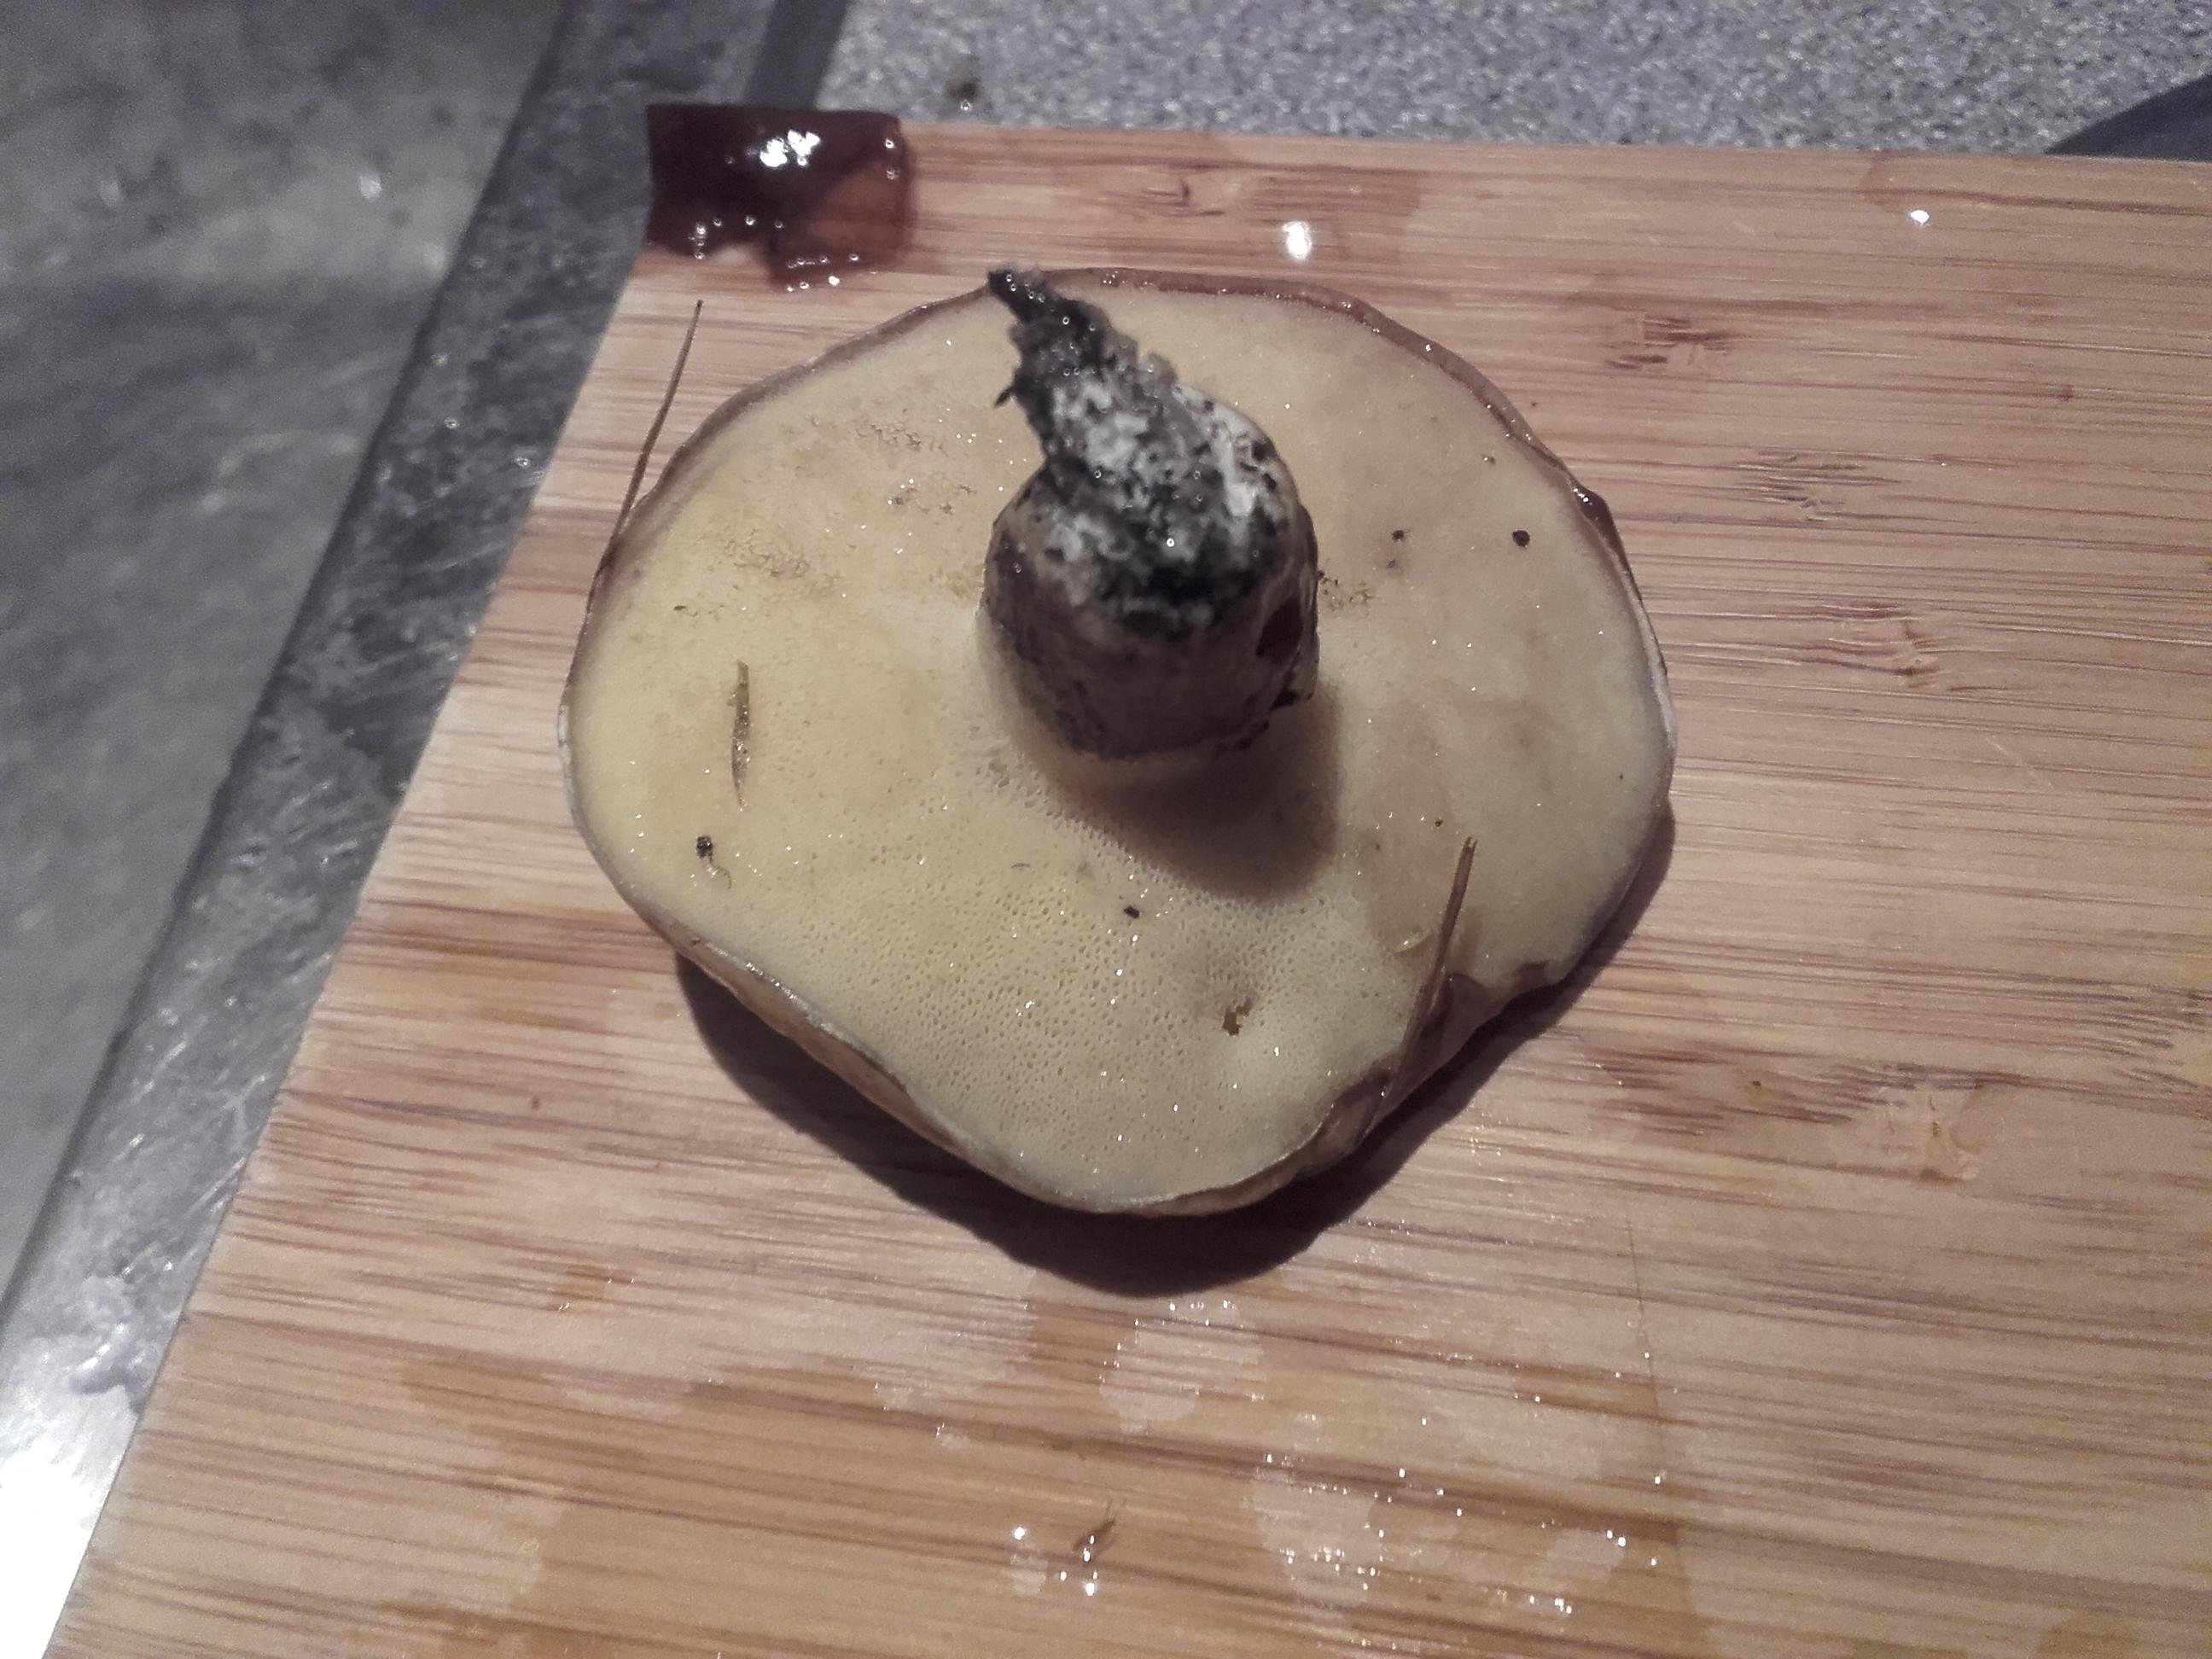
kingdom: Fungi
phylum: Basidiomycota
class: Agaricomycetes
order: Boletales
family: Suillaceae
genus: Suillus
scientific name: Suillus luteus
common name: brungul slimrørhat
